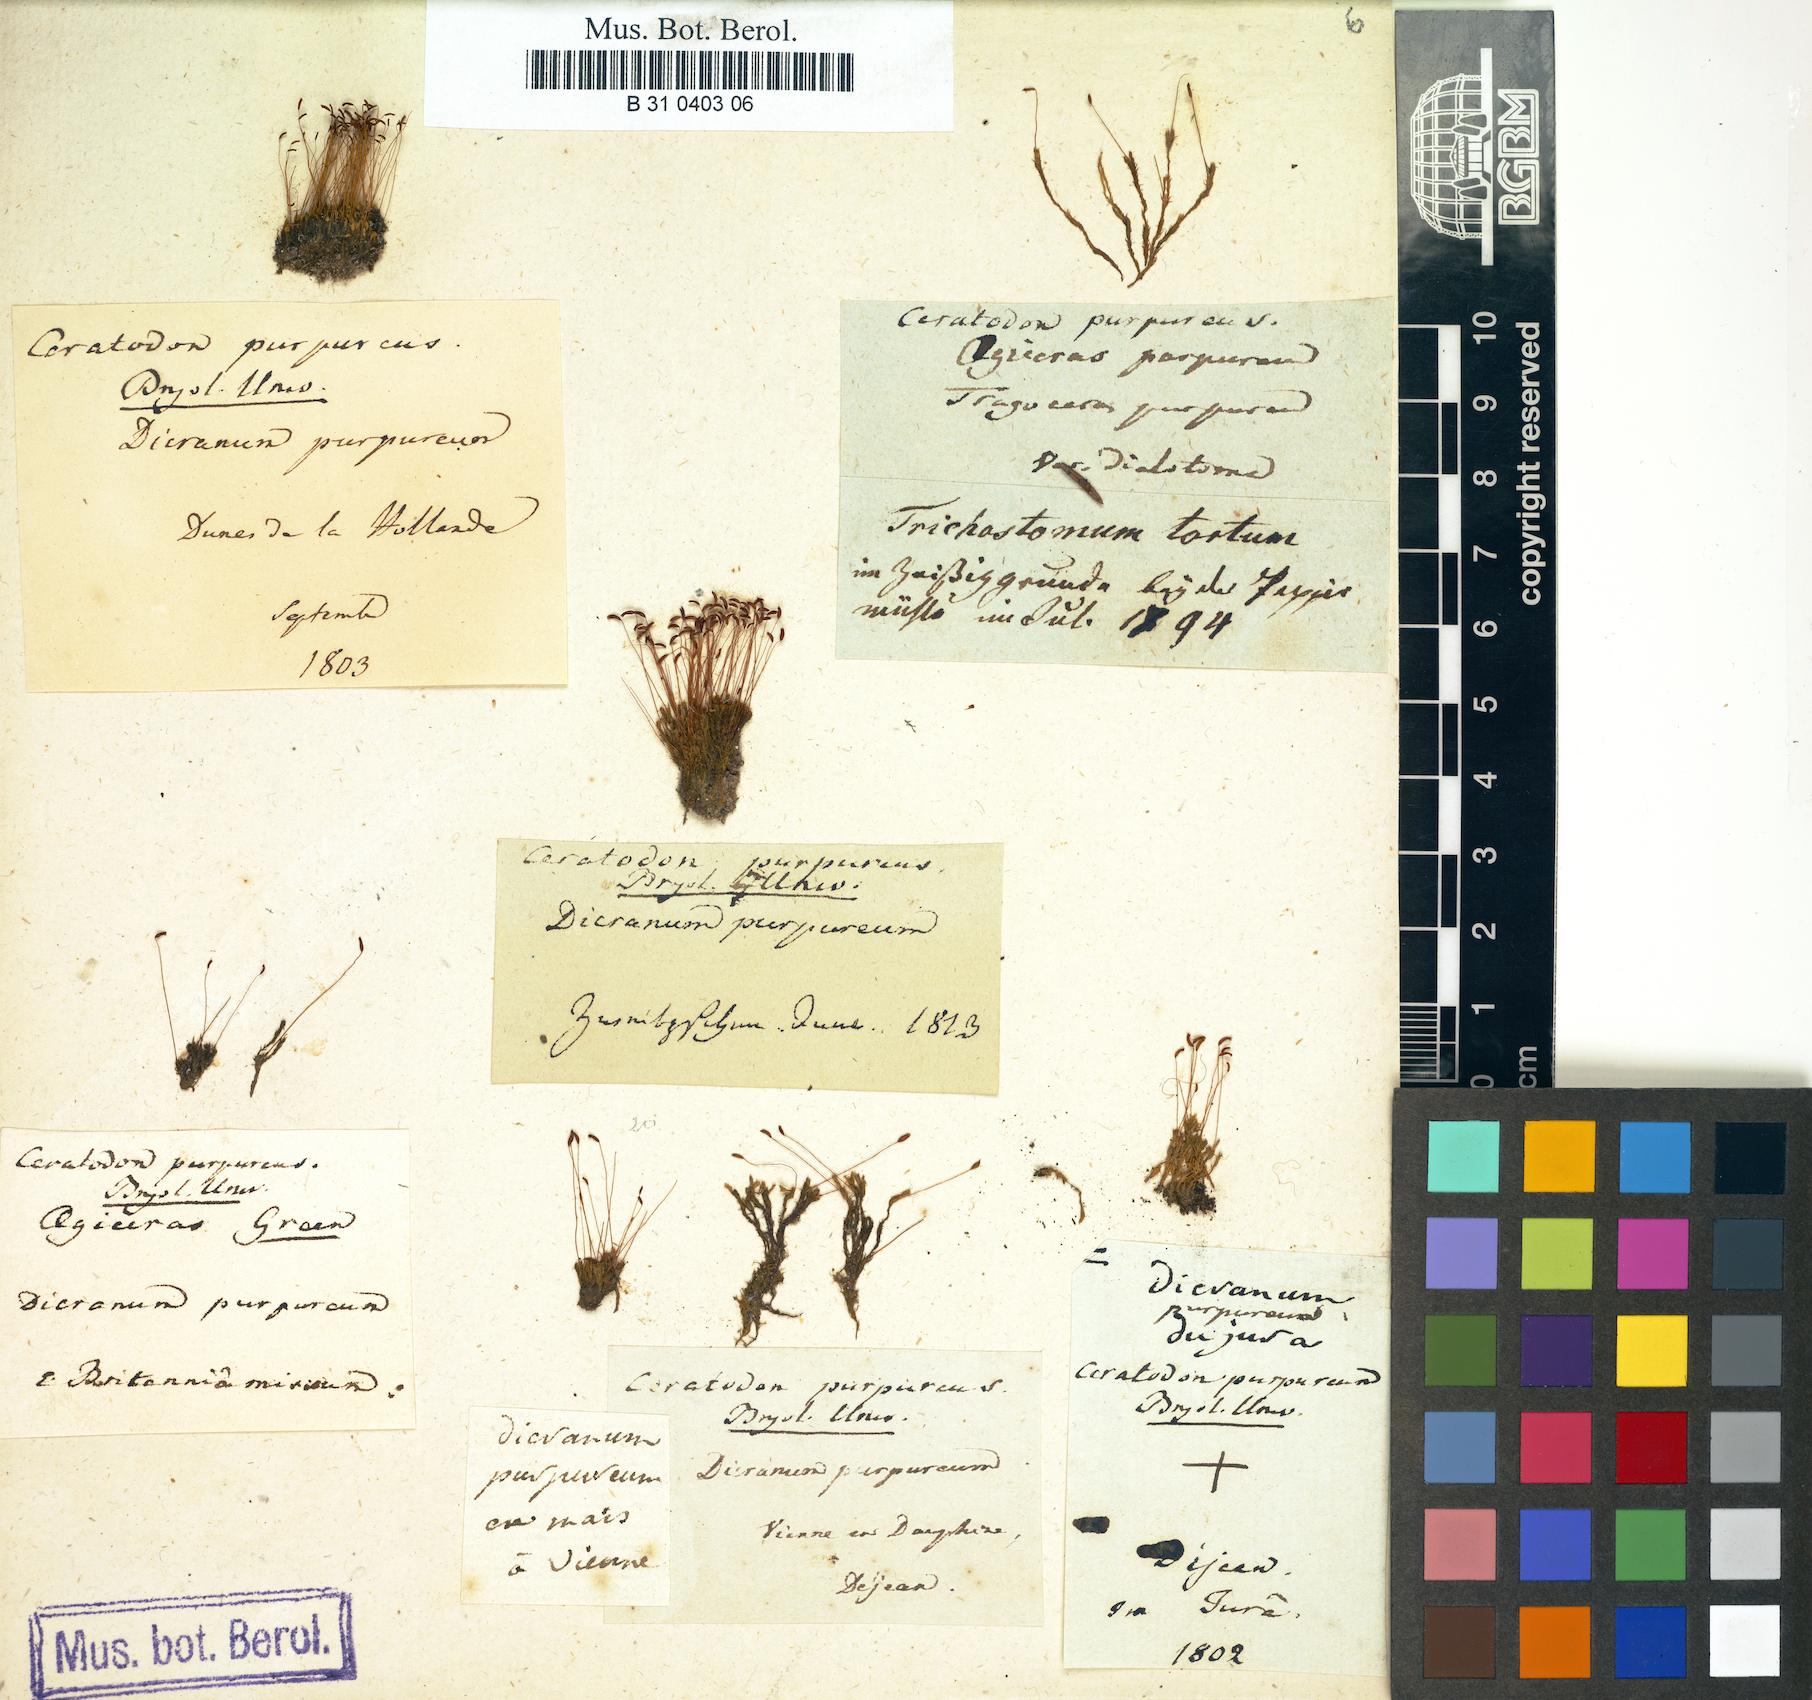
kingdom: Plantae
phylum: Bryophyta
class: Bryopsida
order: Dicranales
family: Ditrichaceae
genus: Ceratodon
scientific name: Ceratodon purpureus
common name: Redshank
